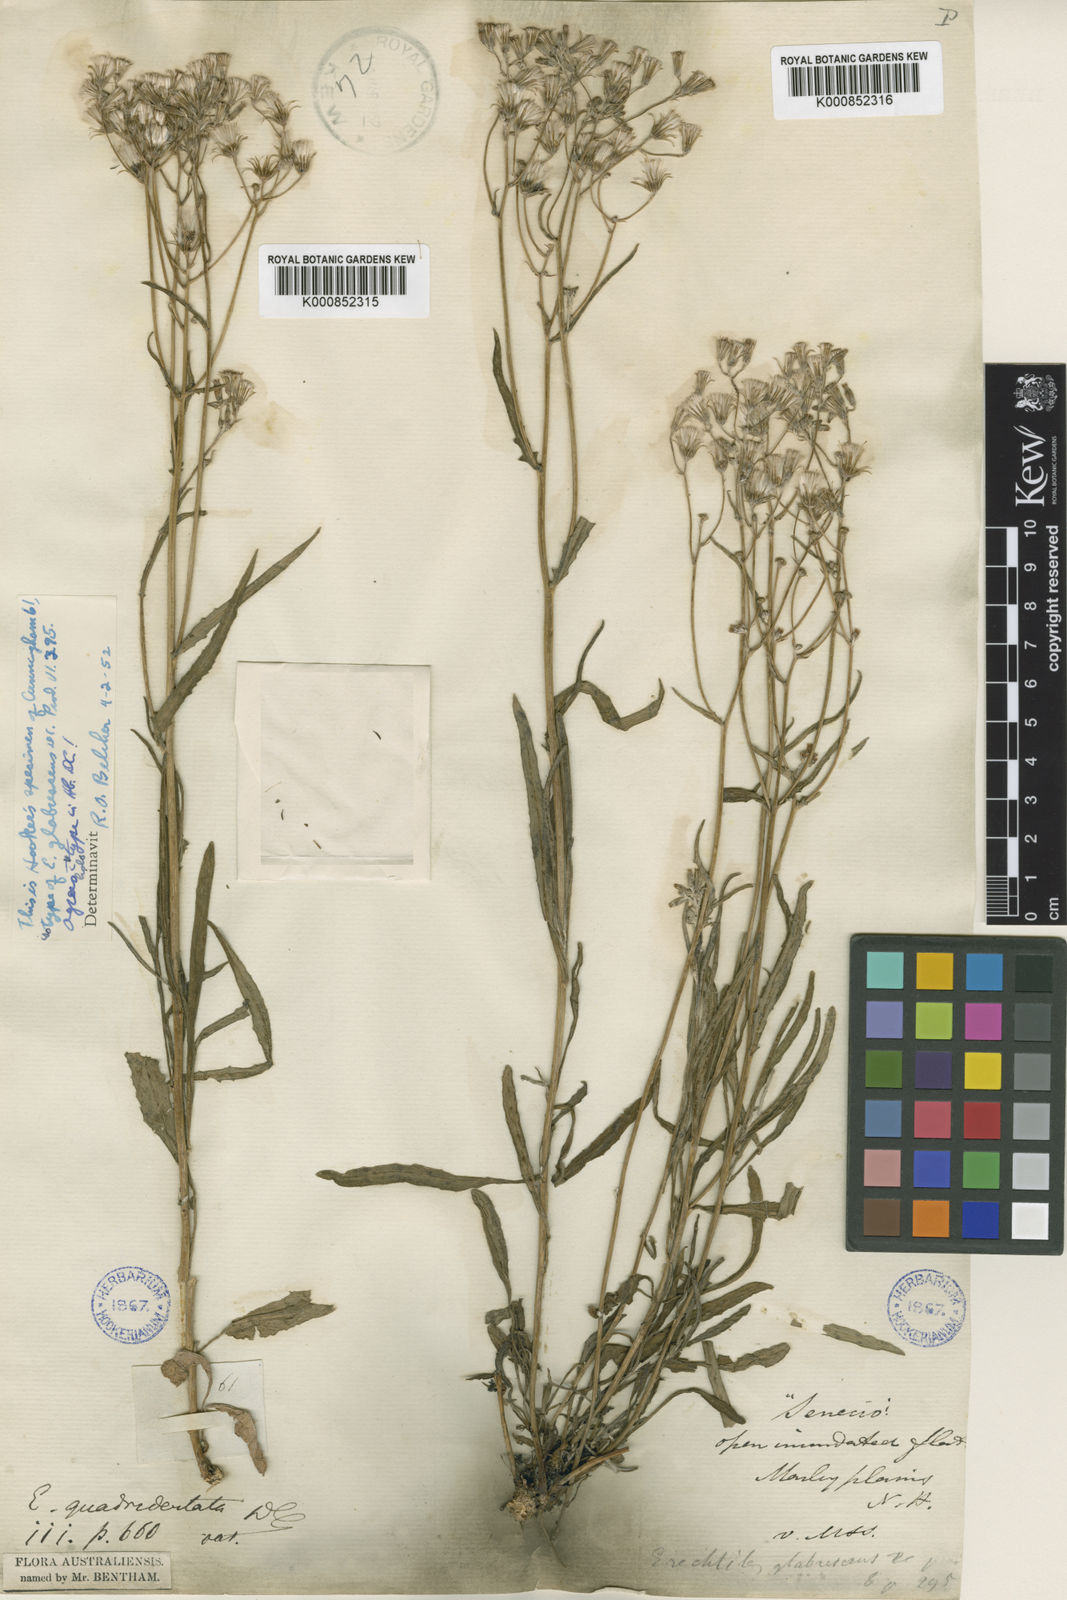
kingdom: Plantae
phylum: Tracheophyta
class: Magnoliopsida
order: Asterales
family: Asteraceae
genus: Senecio
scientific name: Senecio quadridentatus
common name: Cotton fireweed
